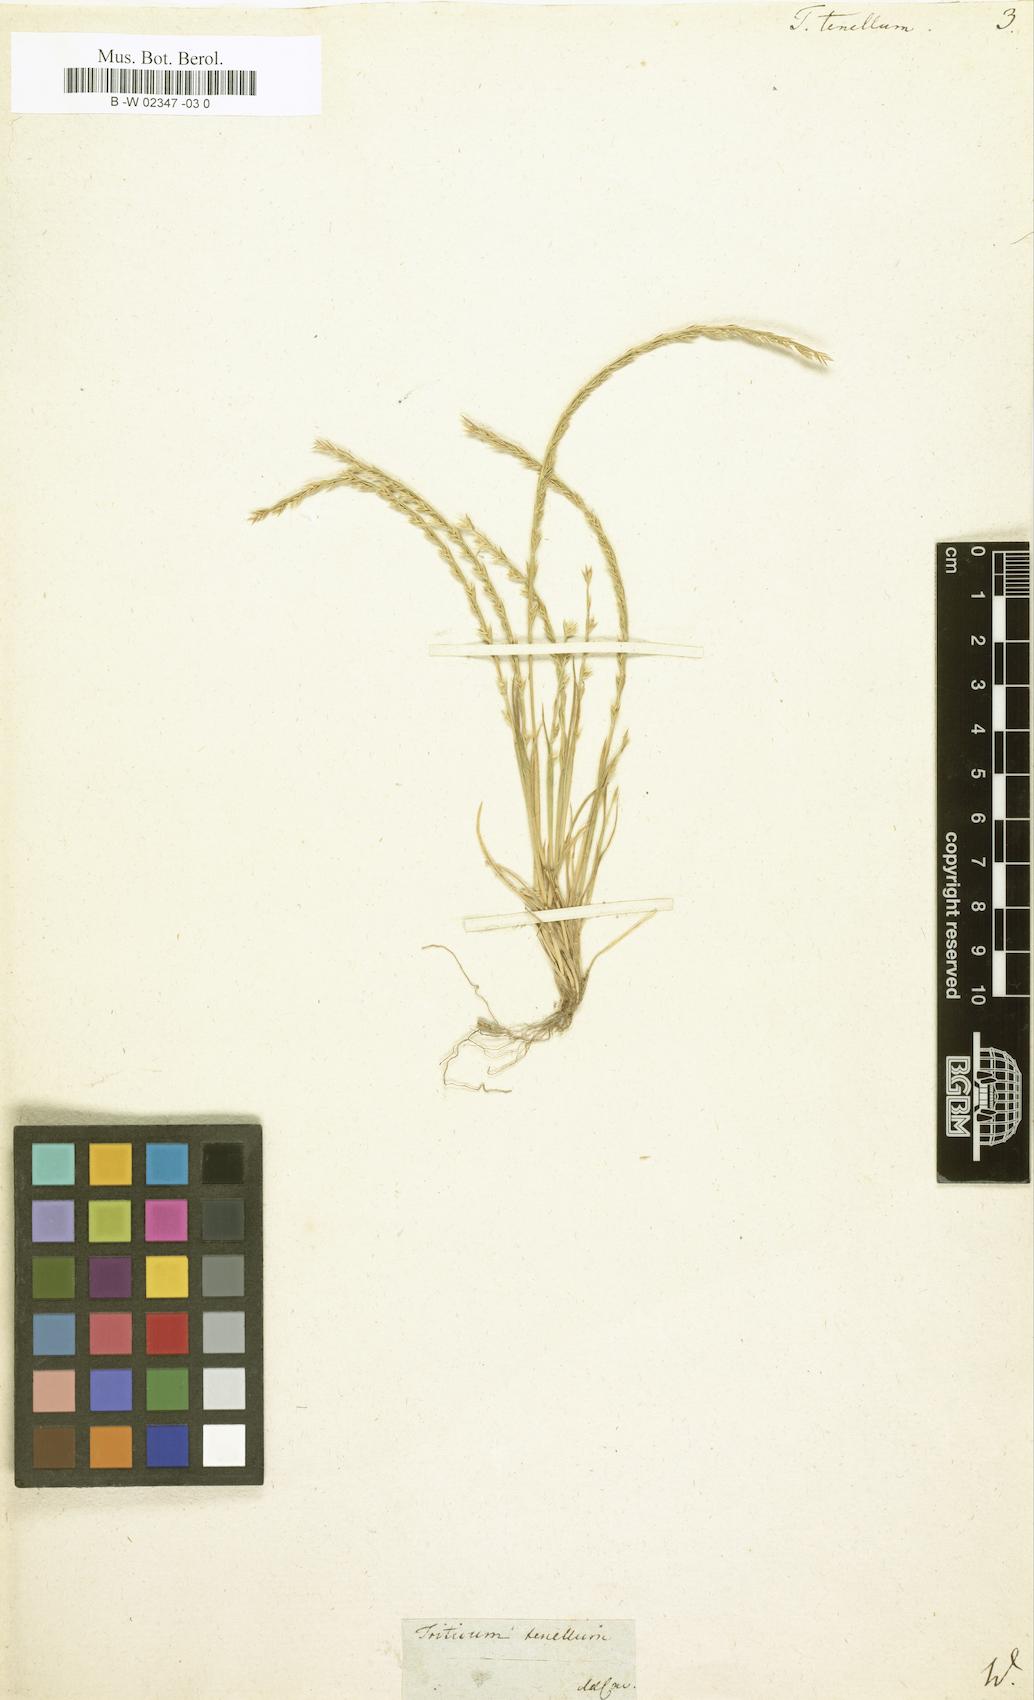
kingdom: Plantae
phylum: Tracheophyta
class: Liliopsida
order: Poales
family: Poaceae
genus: Triticum
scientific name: Triticum tenellum
